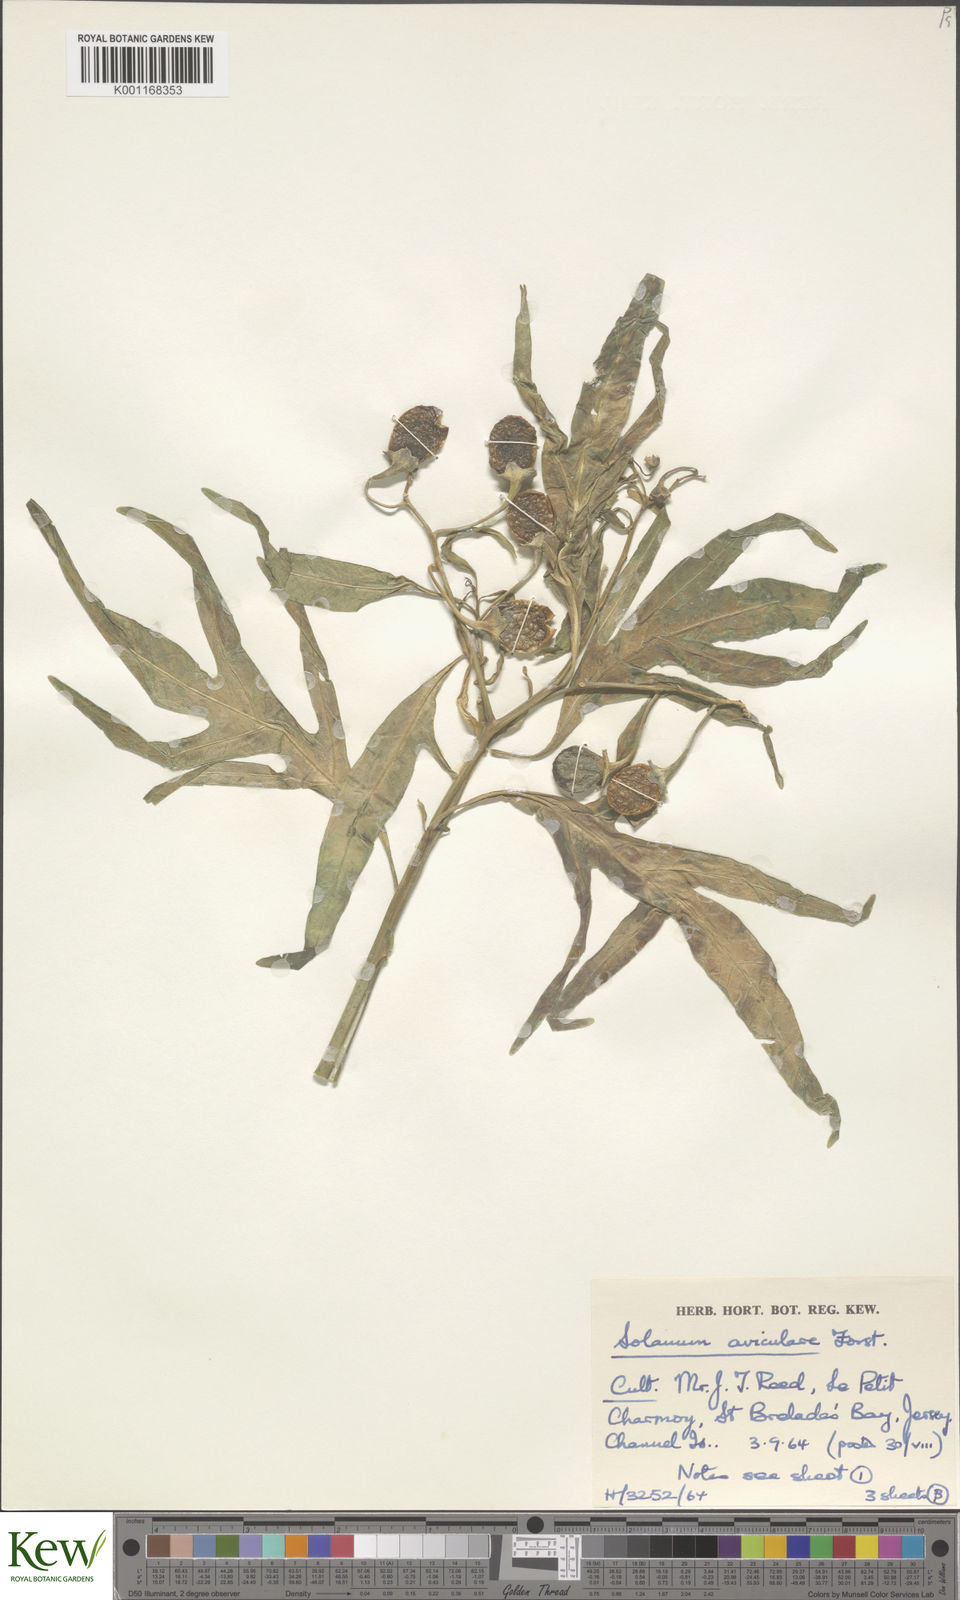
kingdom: Plantae
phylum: Tracheophyta
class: Magnoliopsida
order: Solanales
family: Solanaceae
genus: Solanum
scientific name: Solanum aviculare
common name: New zealand nightshade
